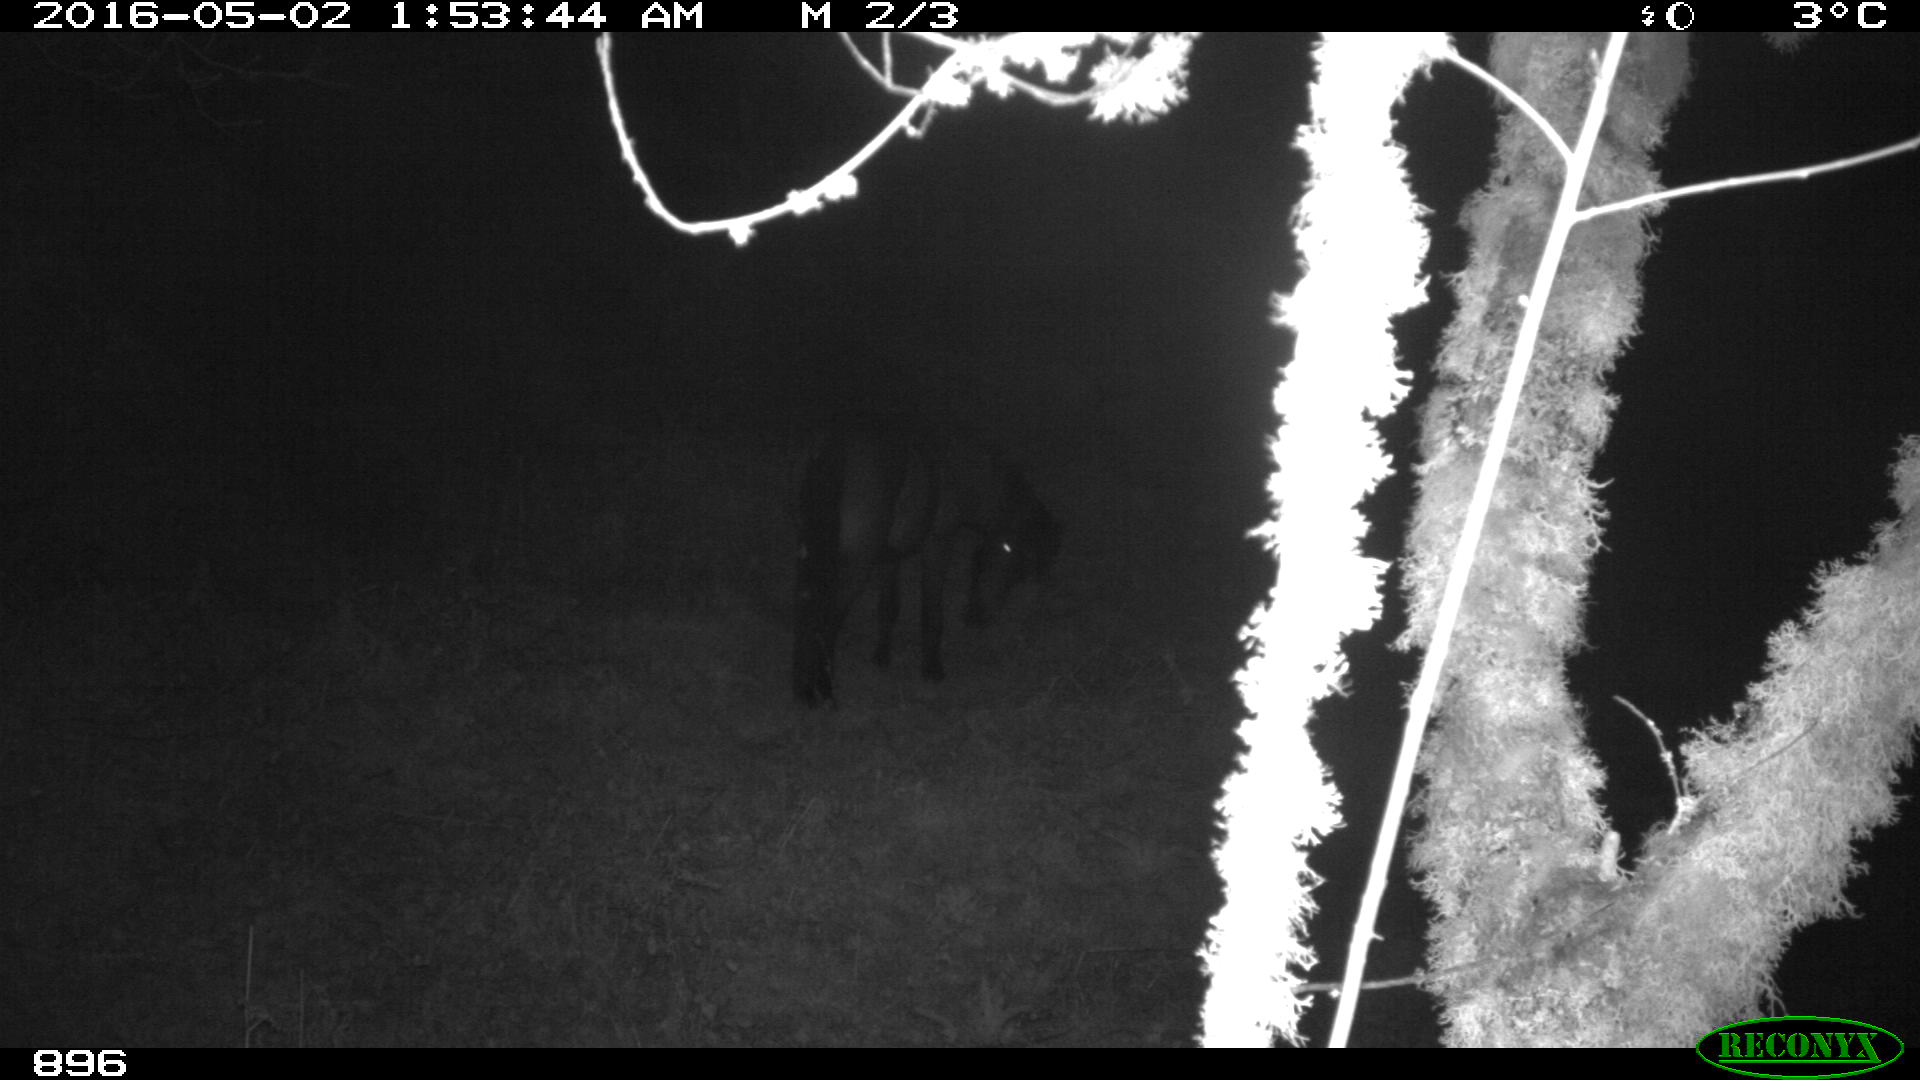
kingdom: Animalia
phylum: Chordata
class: Mammalia
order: Perissodactyla
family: Equidae
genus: Equus
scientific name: Equus caballus
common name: Horse
